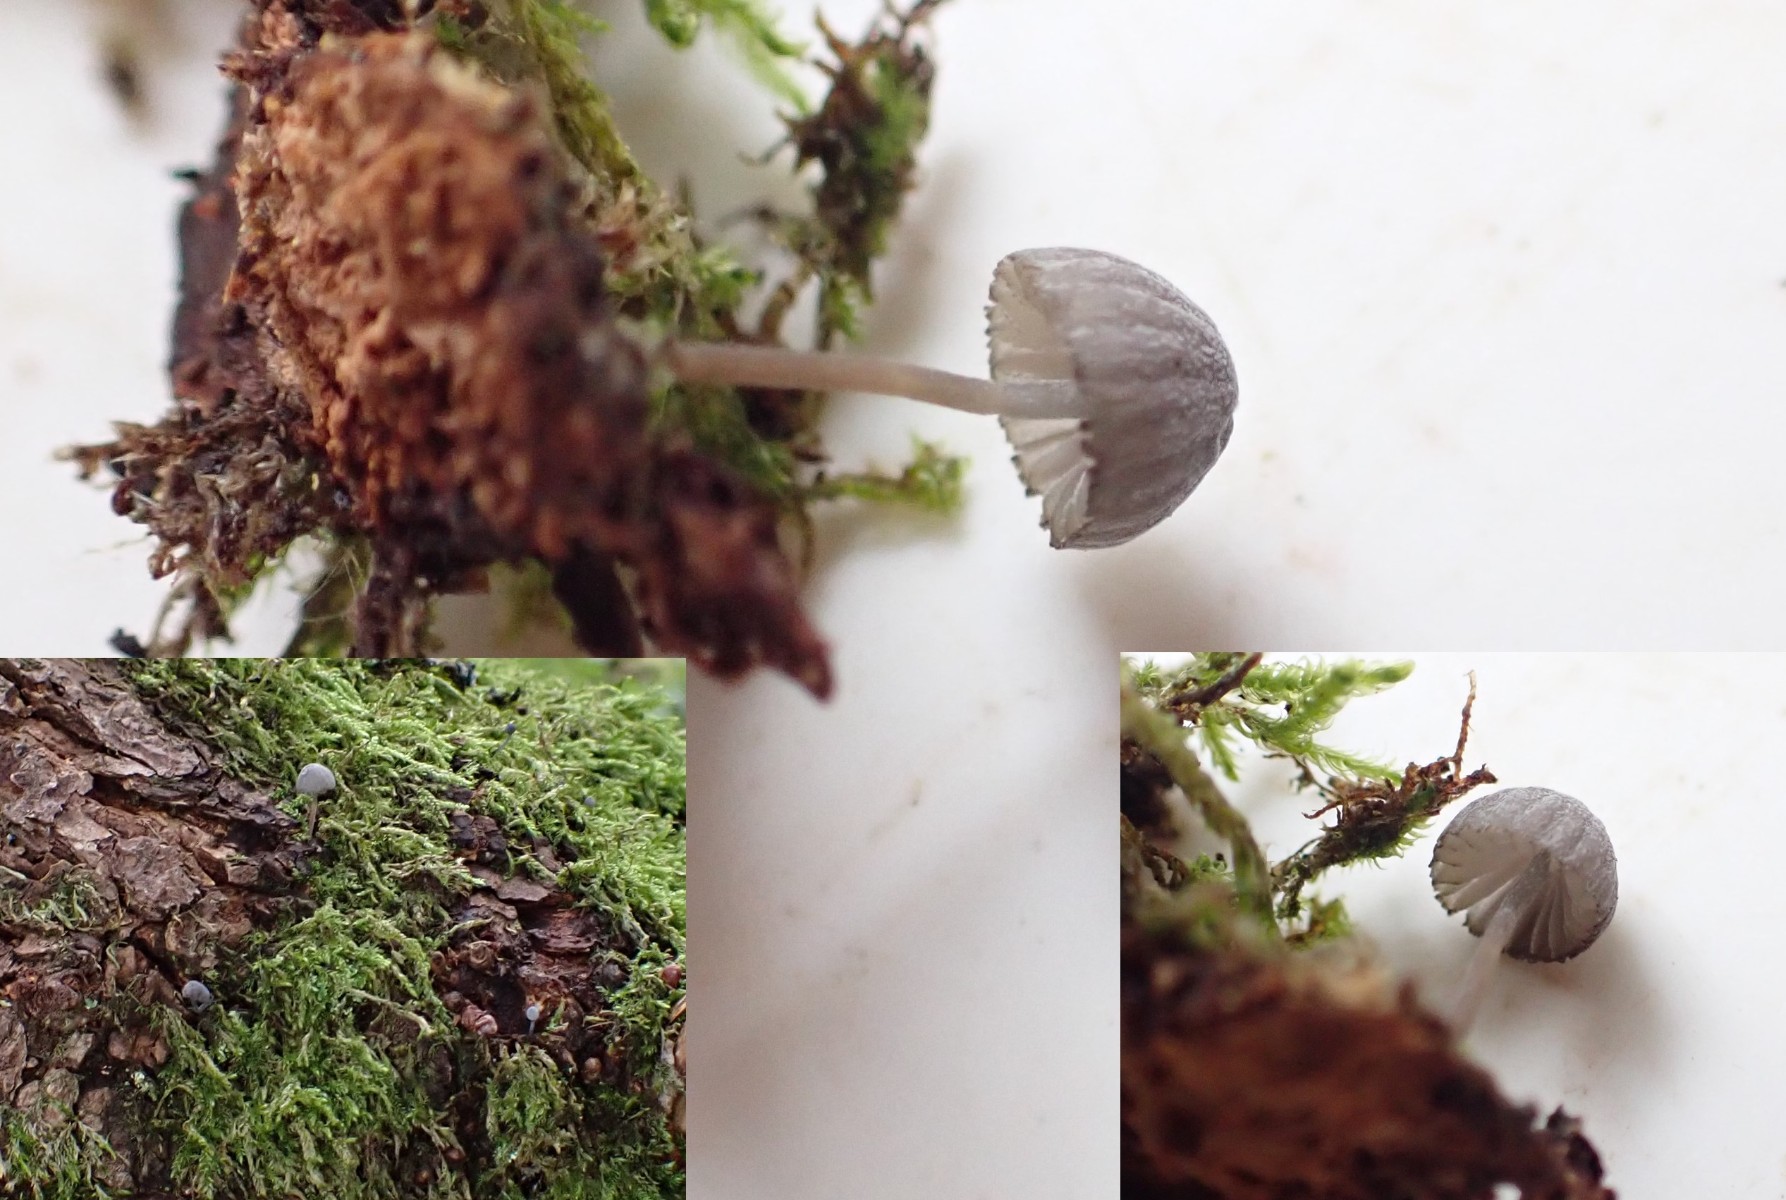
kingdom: Fungi
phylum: Basidiomycota
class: Agaricomycetes
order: Agaricales
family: Mycenaceae
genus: Mycena
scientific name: Mycena pseudocorticola
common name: gråblå bark-huesvamp
